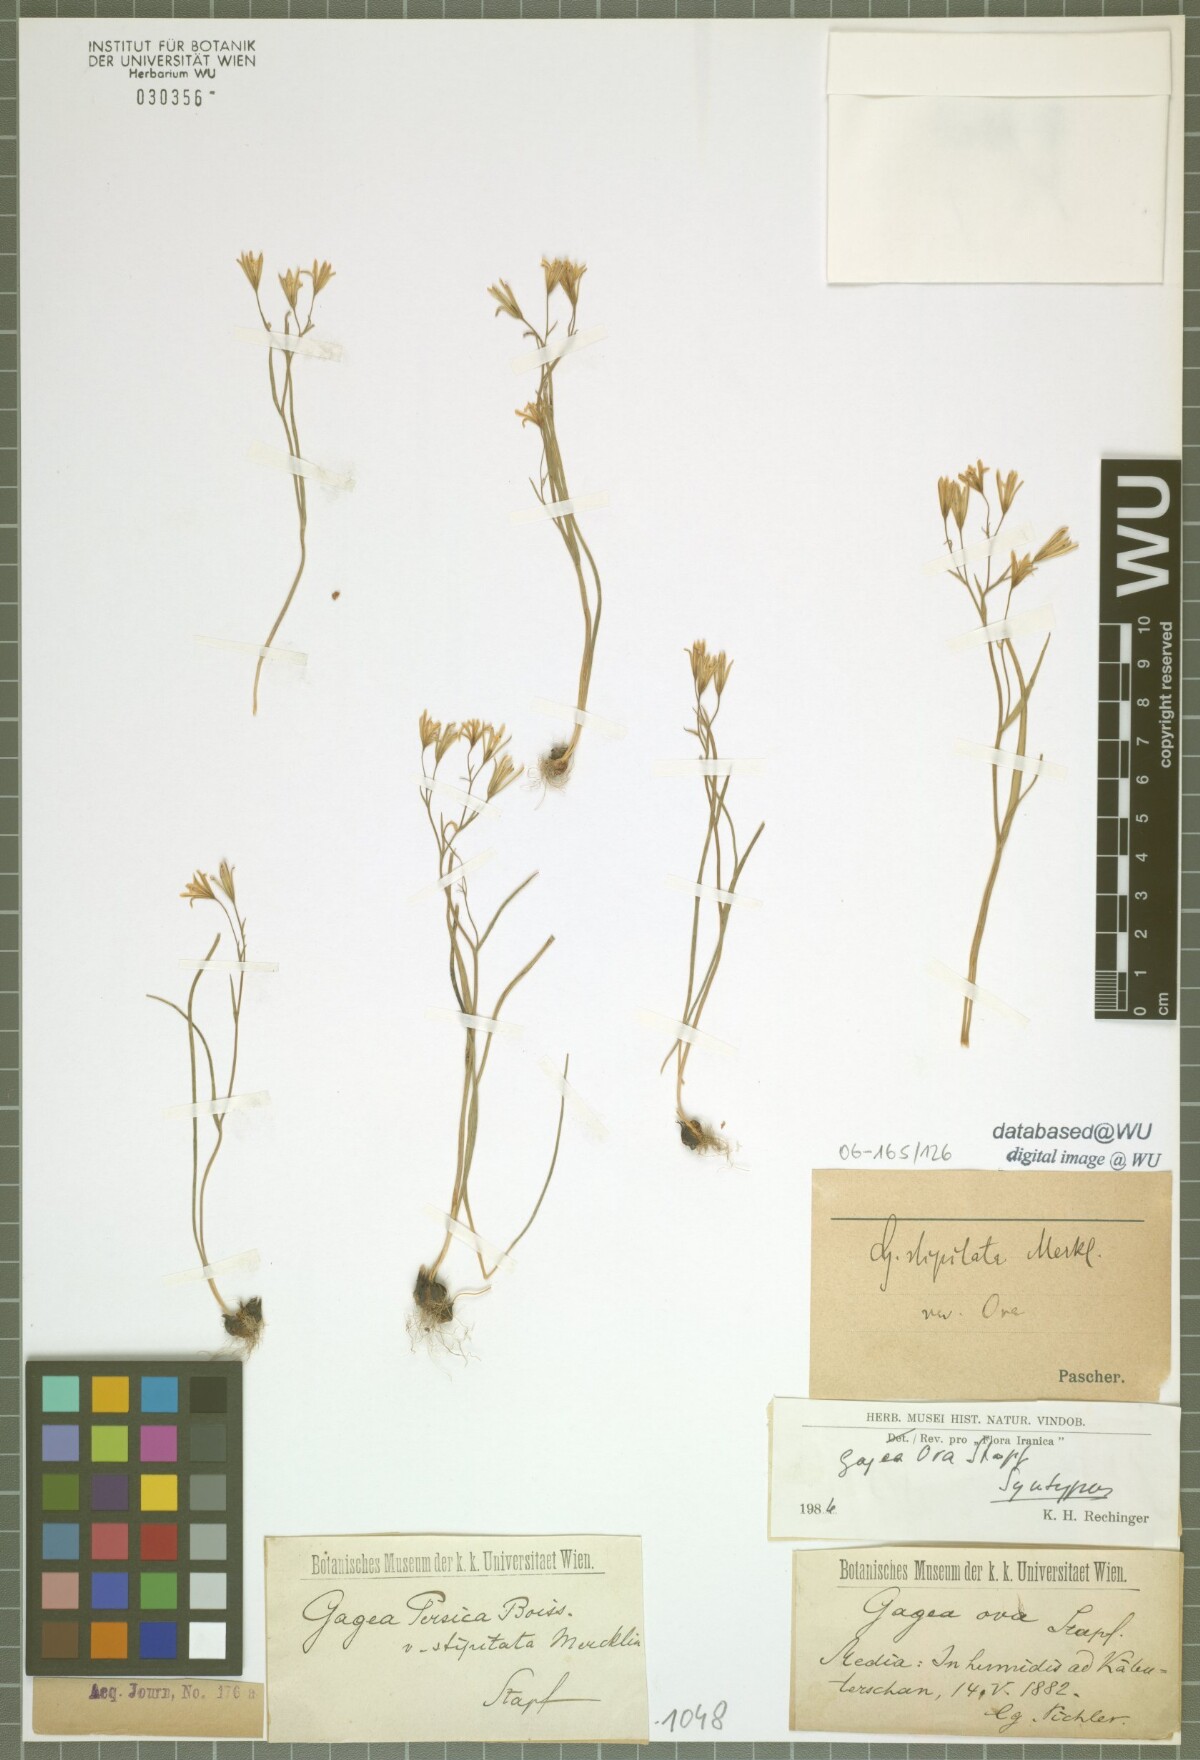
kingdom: Plantae
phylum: Tracheophyta
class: Liliopsida
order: Liliales
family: Liliaceae
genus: Gagea
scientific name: Gagea kunawurensis
